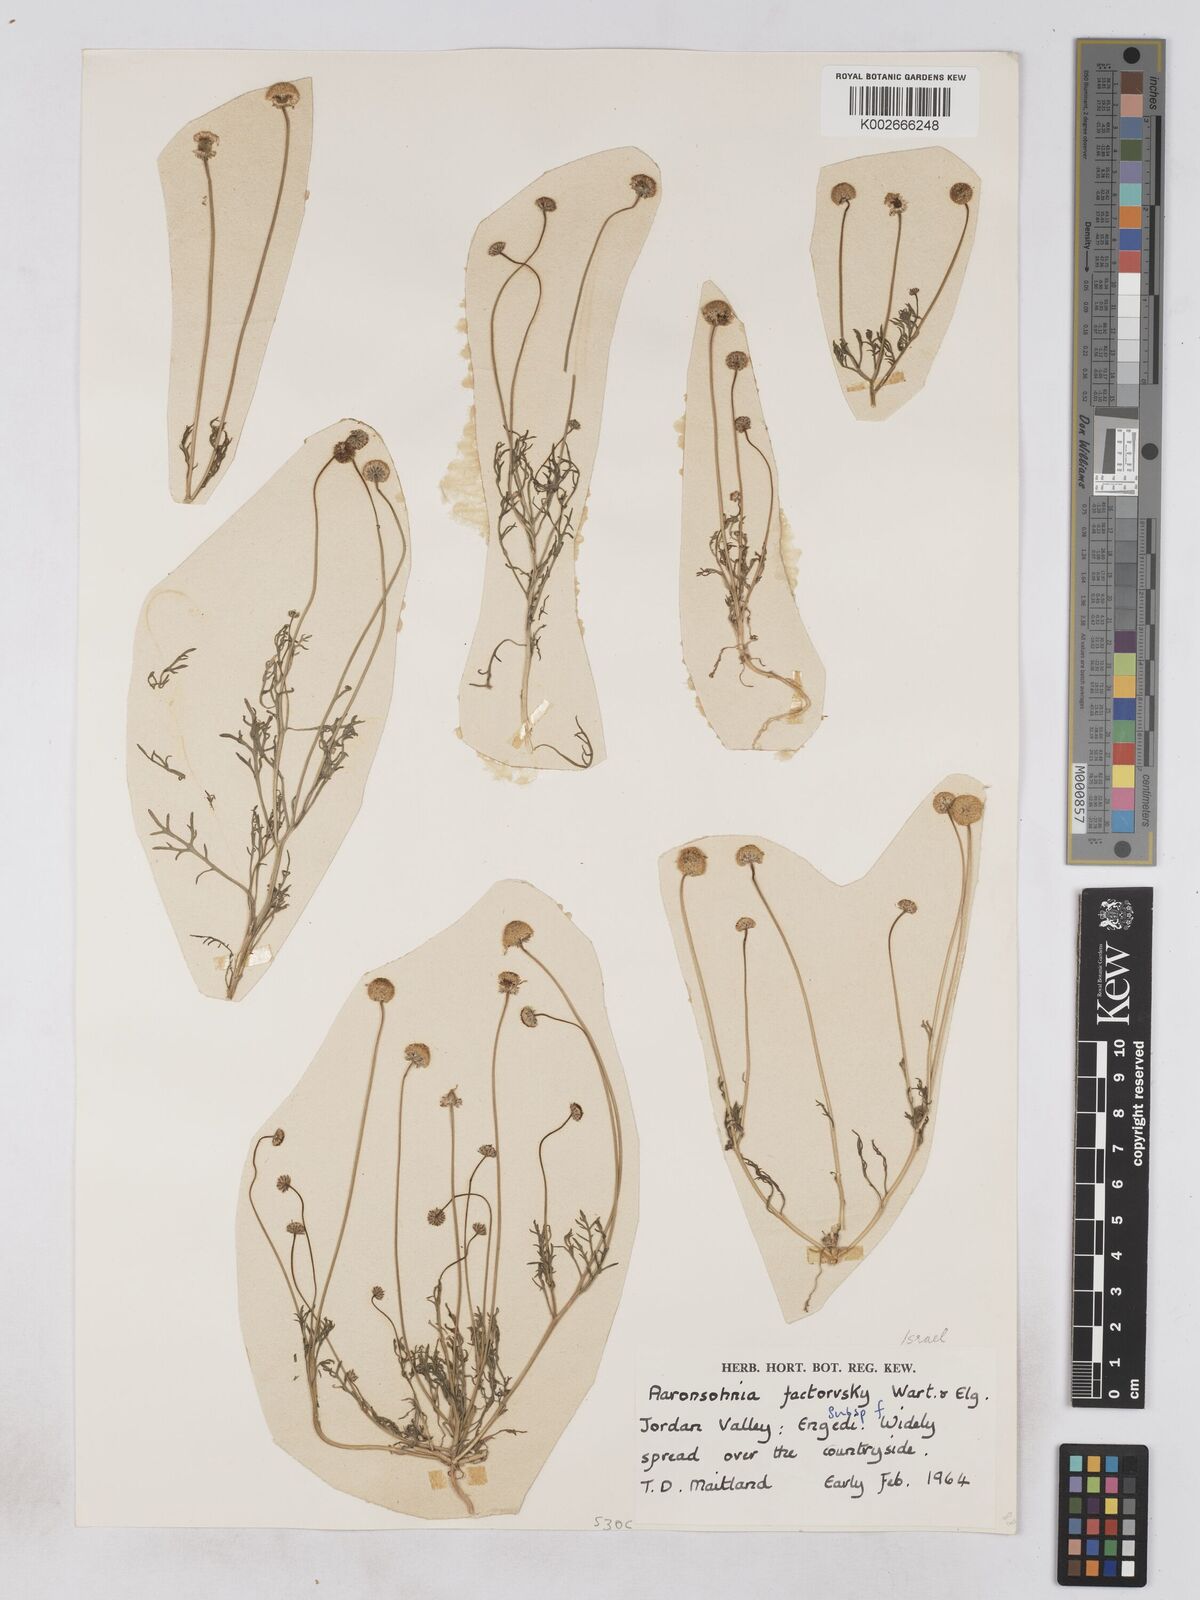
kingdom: Plantae
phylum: Tracheophyta
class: Magnoliopsida
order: Asterales
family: Asteraceae
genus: Otoglyphis
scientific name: Otoglyphis factorovskyi
